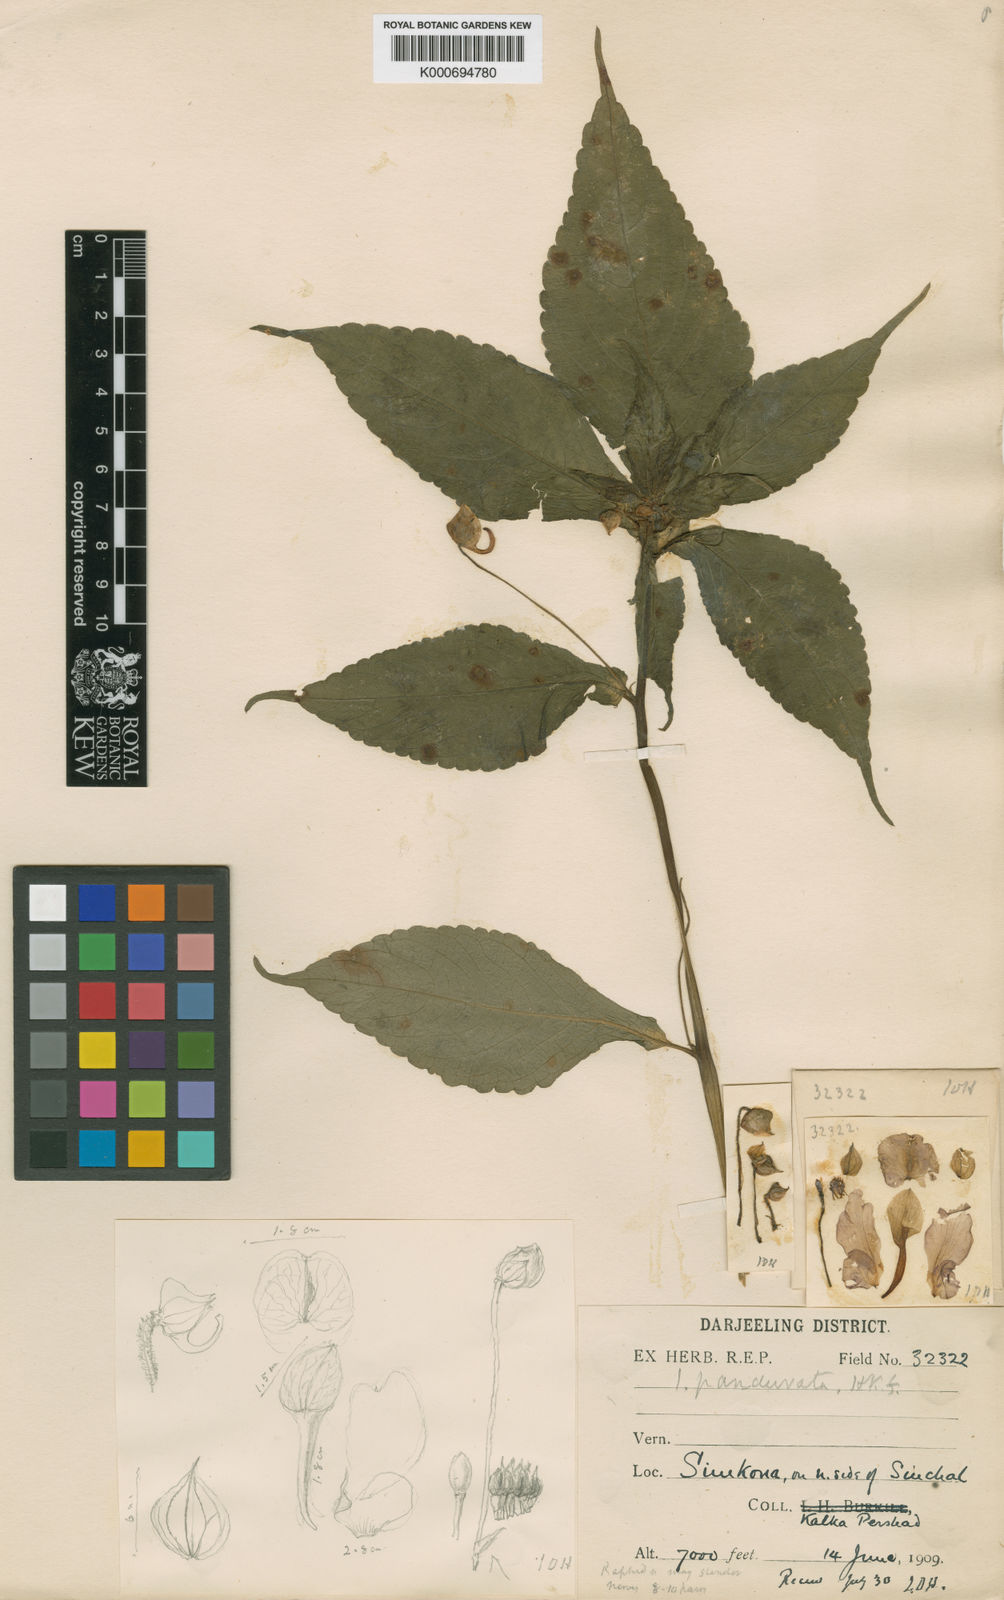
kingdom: Plantae
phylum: Tracheophyta
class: Magnoliopsida
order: Ericales
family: Balsaminaceae
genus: Impatiens
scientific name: Impatiens
